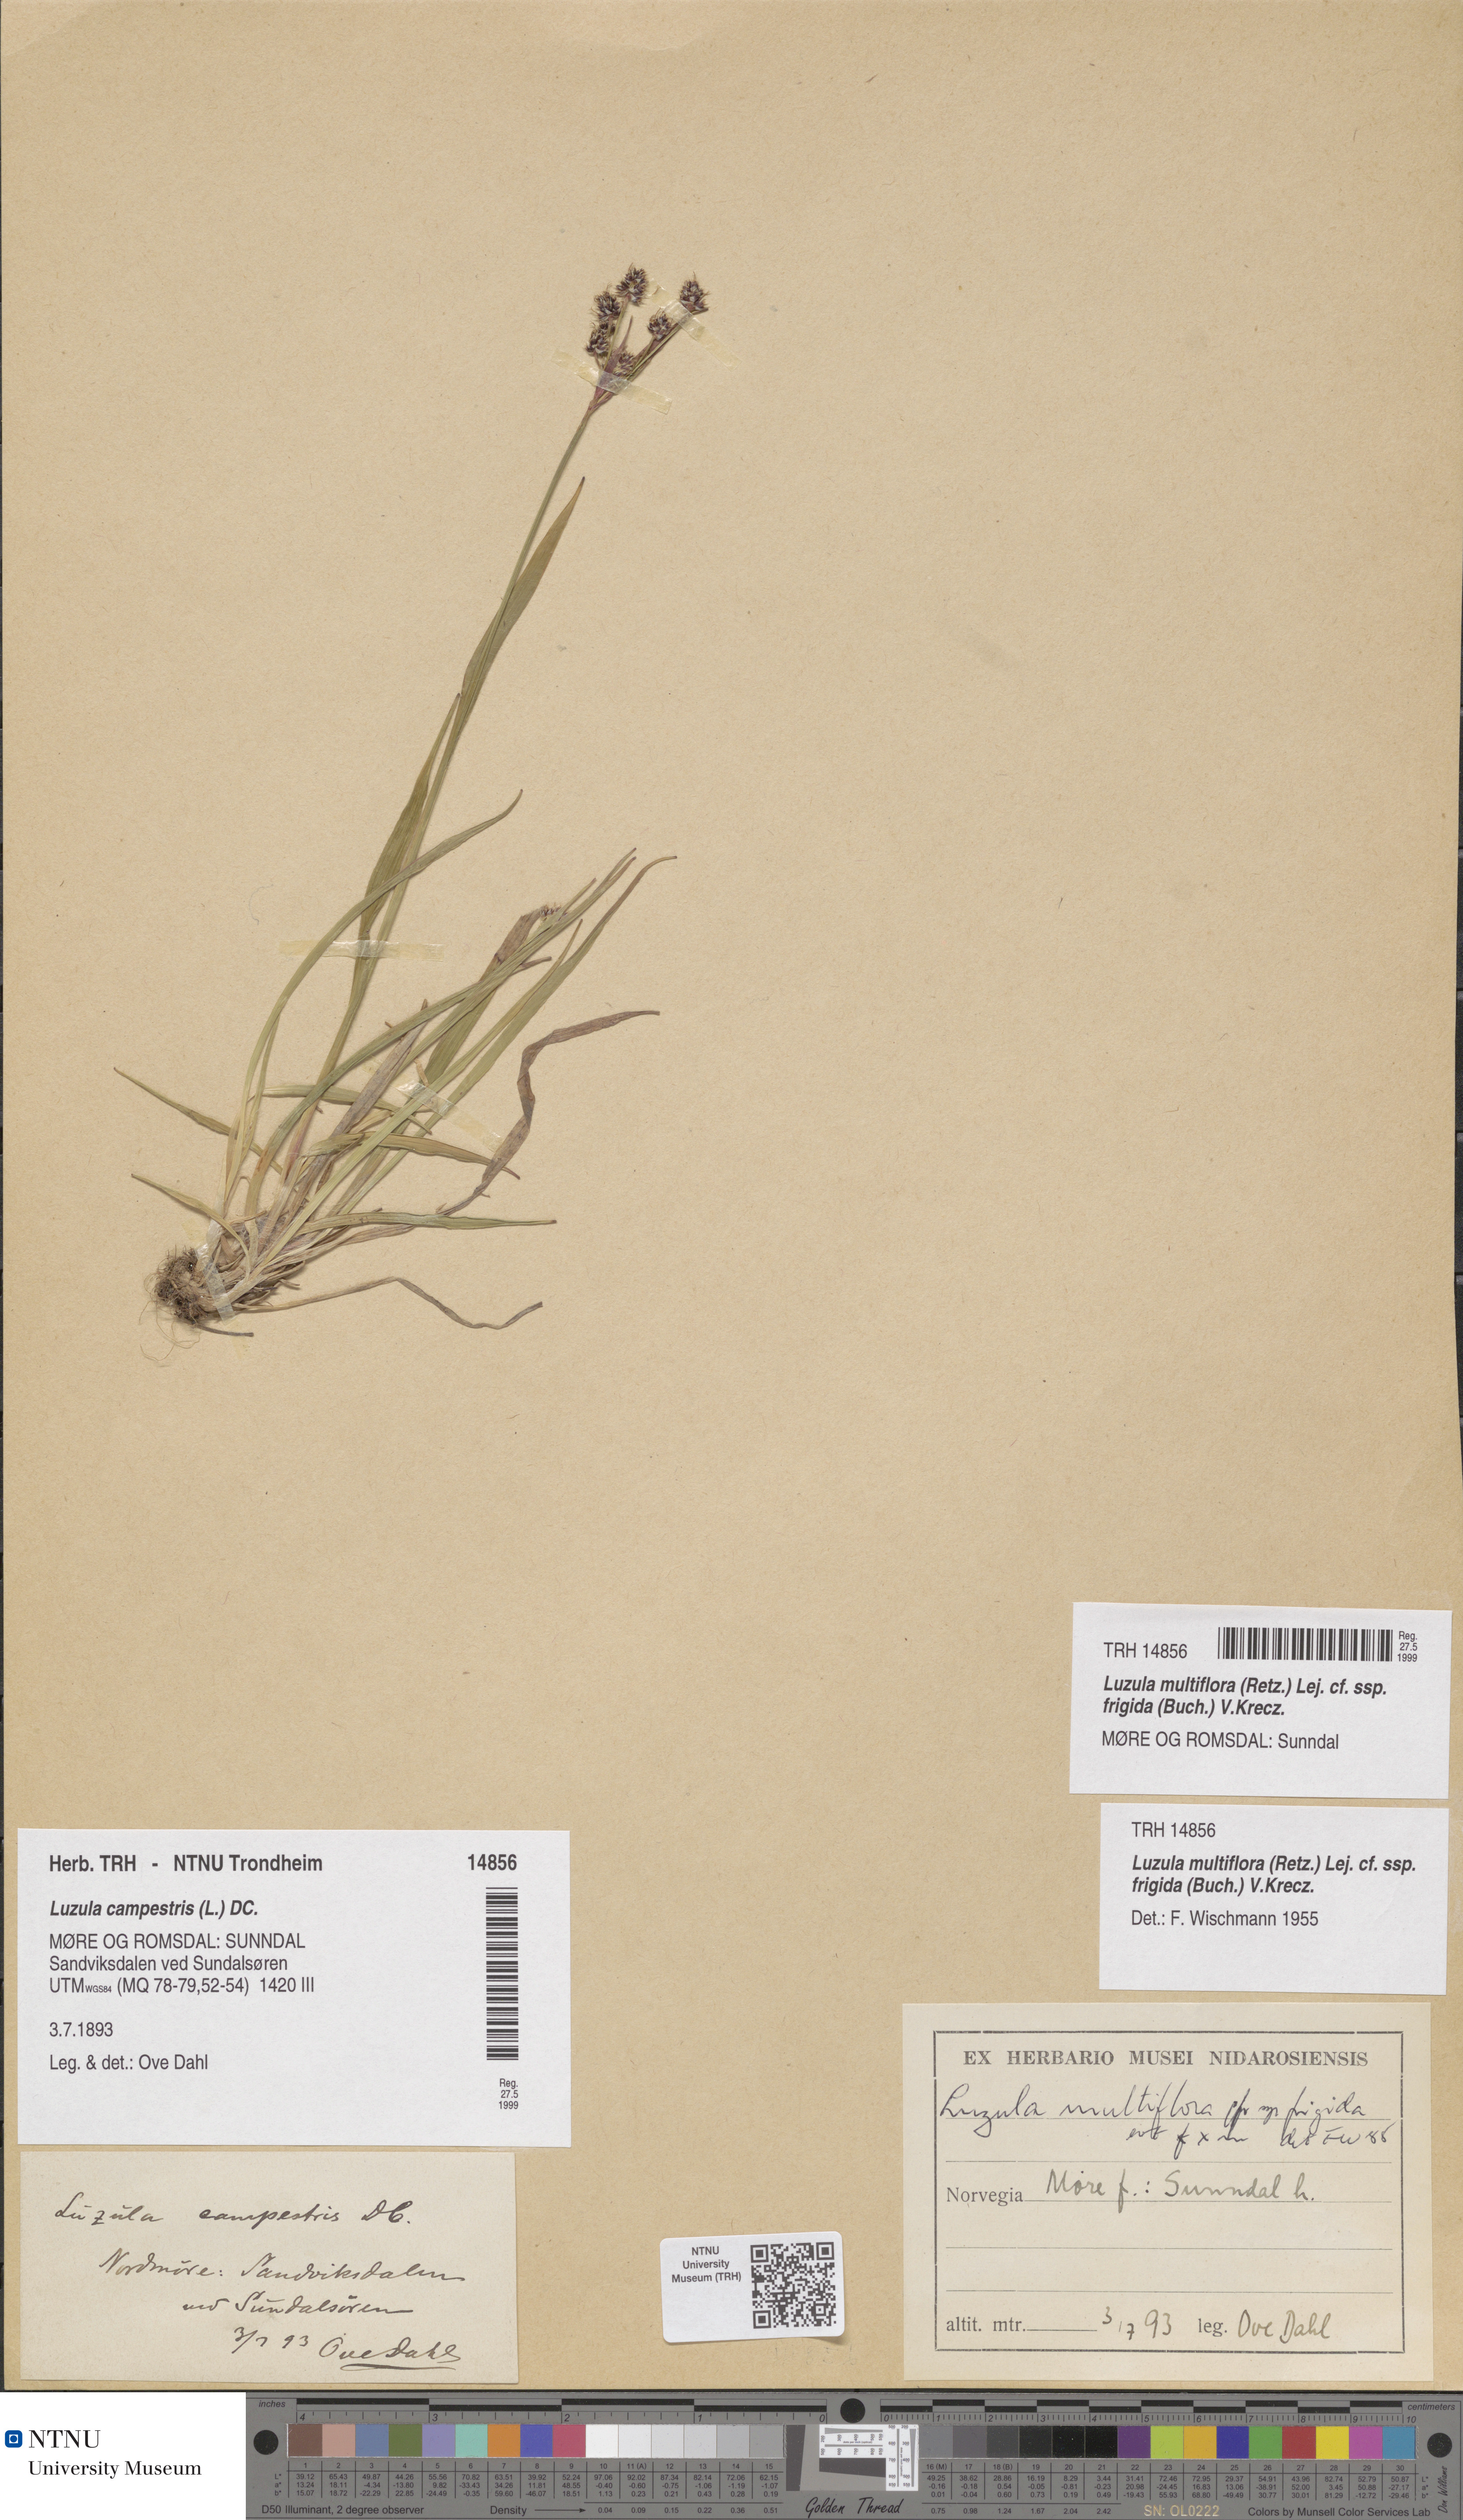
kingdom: Plantae
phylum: Tracheophyta
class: Liliopsida
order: Poales
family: Juncaceae
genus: Luzula
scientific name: Luzula multiflora
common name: Heath wood-rush
